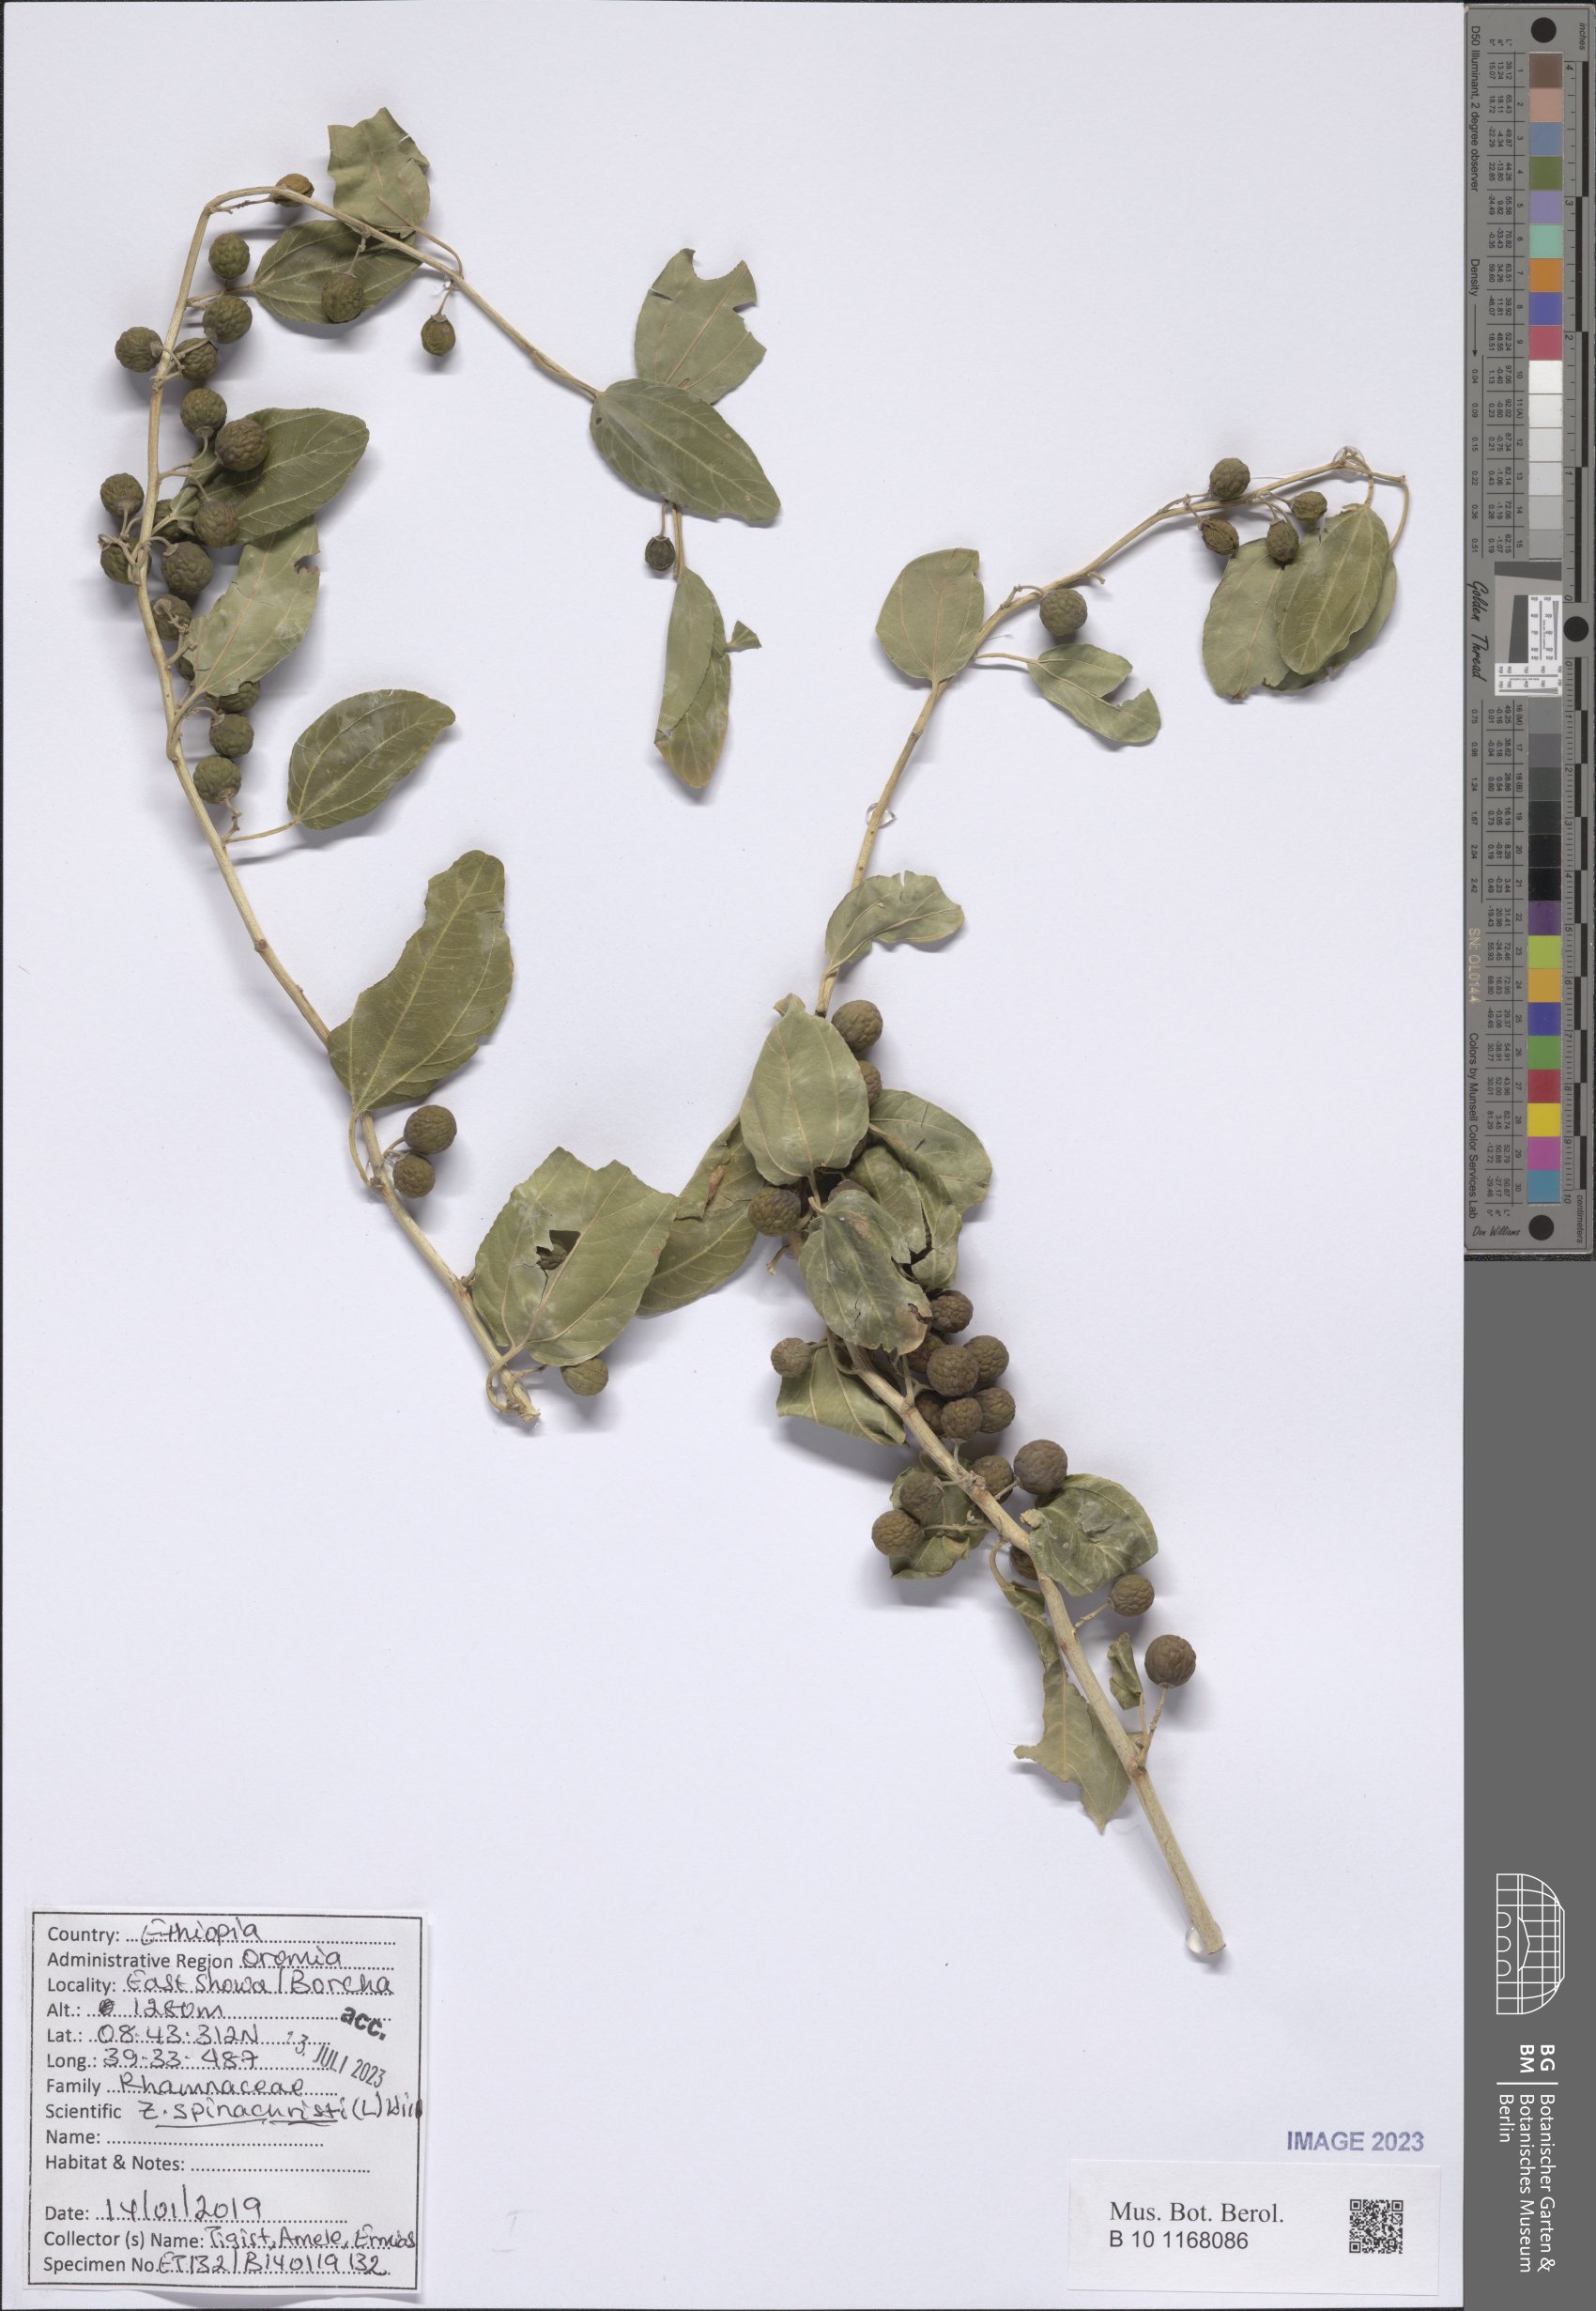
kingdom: Plantae
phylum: Tracheophyta
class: Magnoliopsida
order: Rosales
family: Rhamnaceae
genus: Ziziphus
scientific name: Ziziphus spina-christi
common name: Syrian christ-thorn
